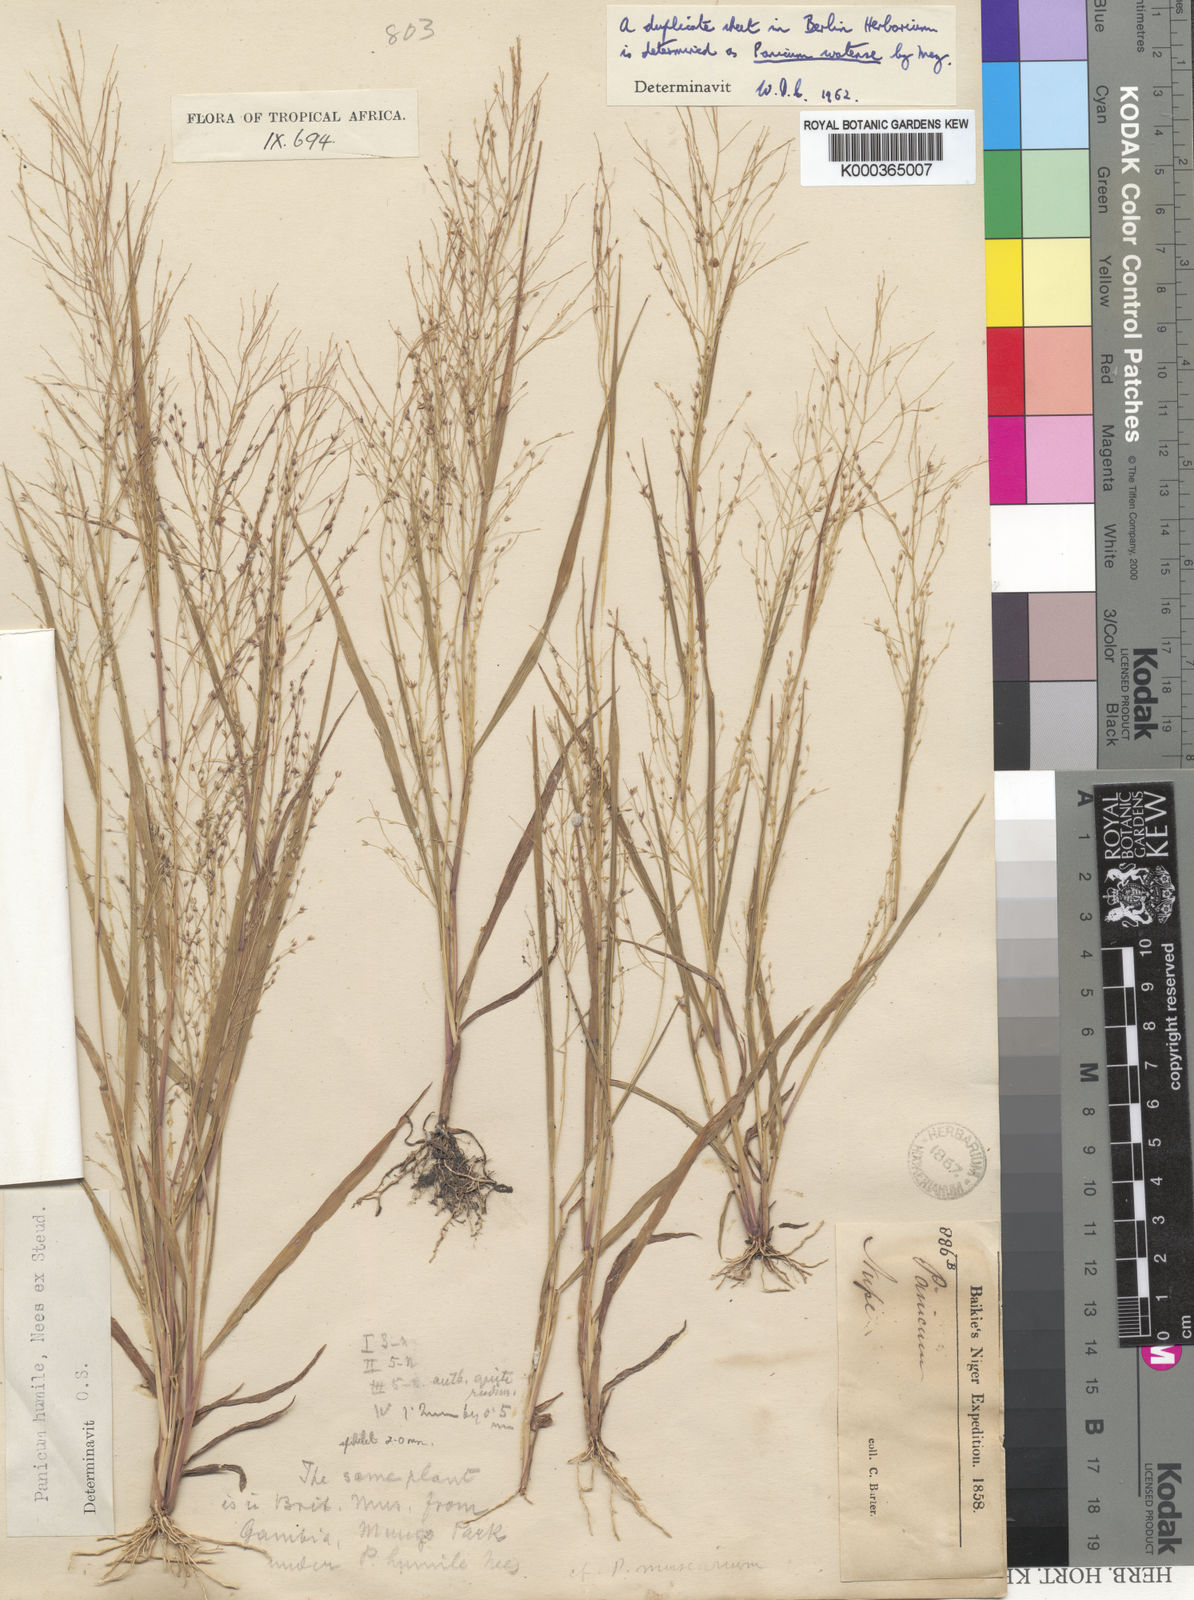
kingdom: Plantae
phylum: Tracheophyta
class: Liliopsida
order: Poales
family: Poaceae
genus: Panicum
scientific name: Panicum humile
